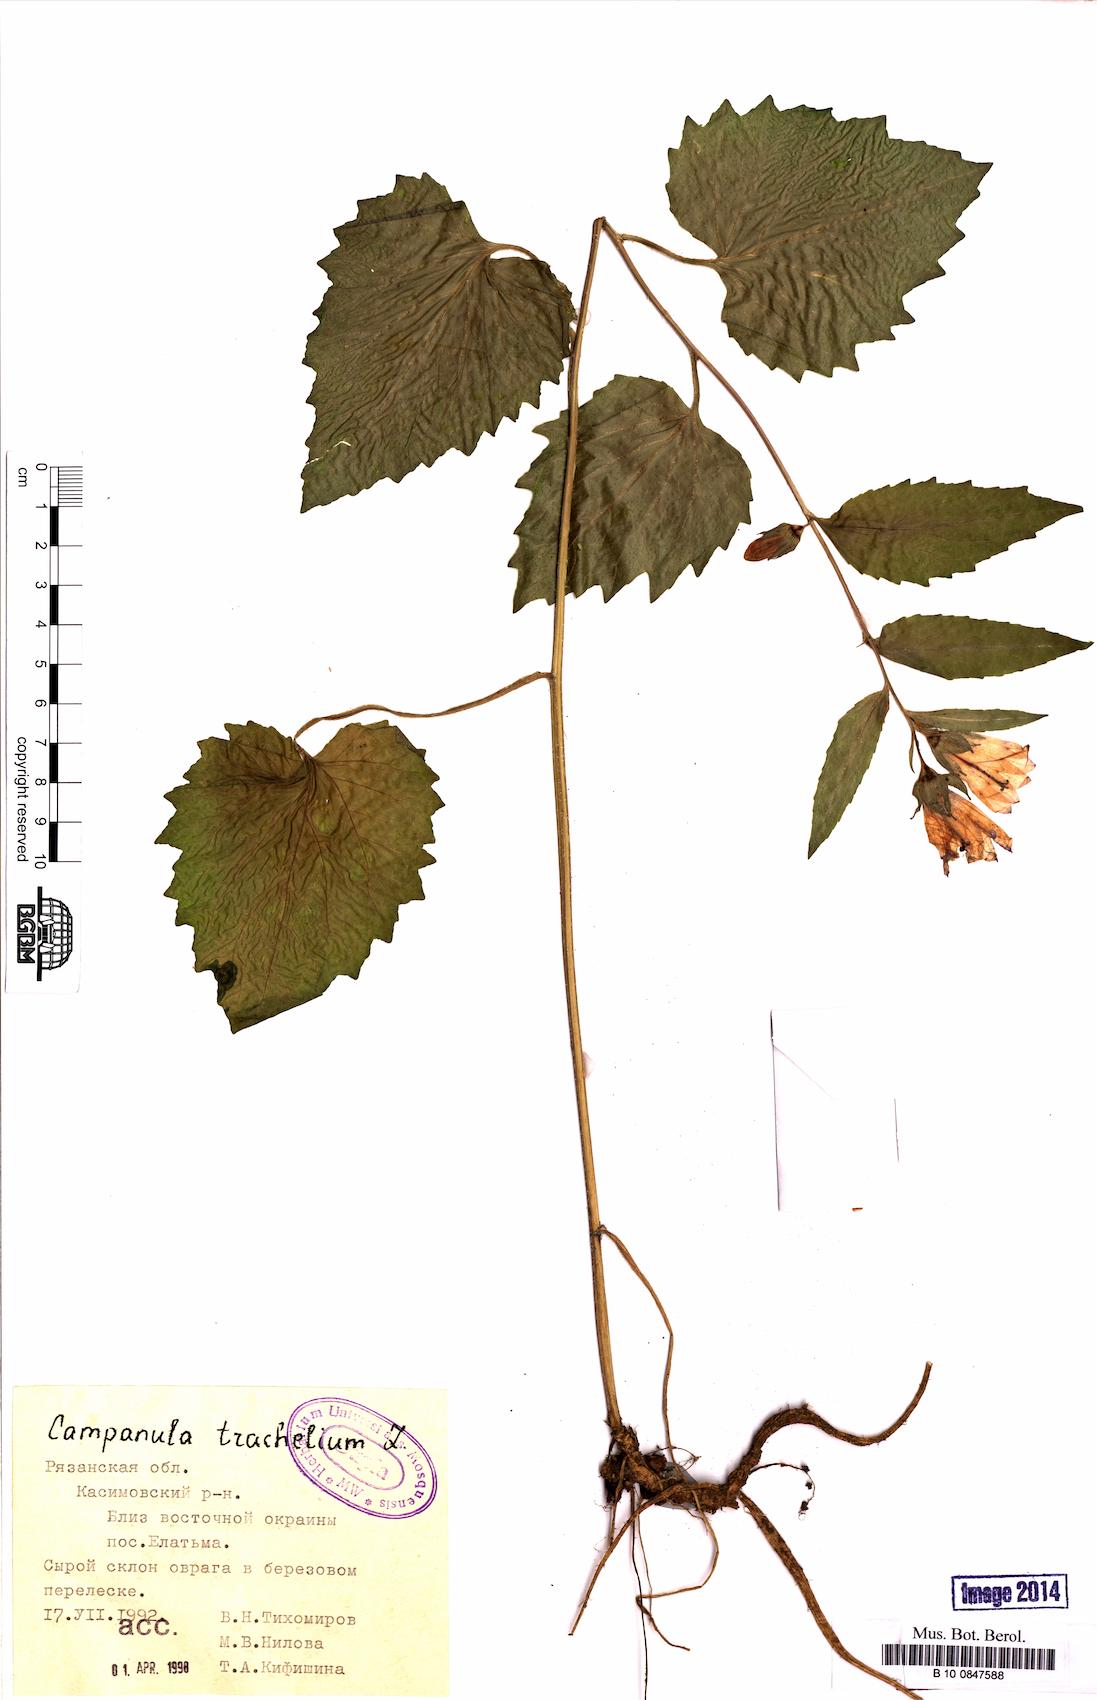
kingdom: Plantae
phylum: Tracheophyta
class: Magnoliopsida
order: Asterales
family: Campanulaceae
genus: Campanula
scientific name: Campanula trachelium
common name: Nettle-leaved bellflower
